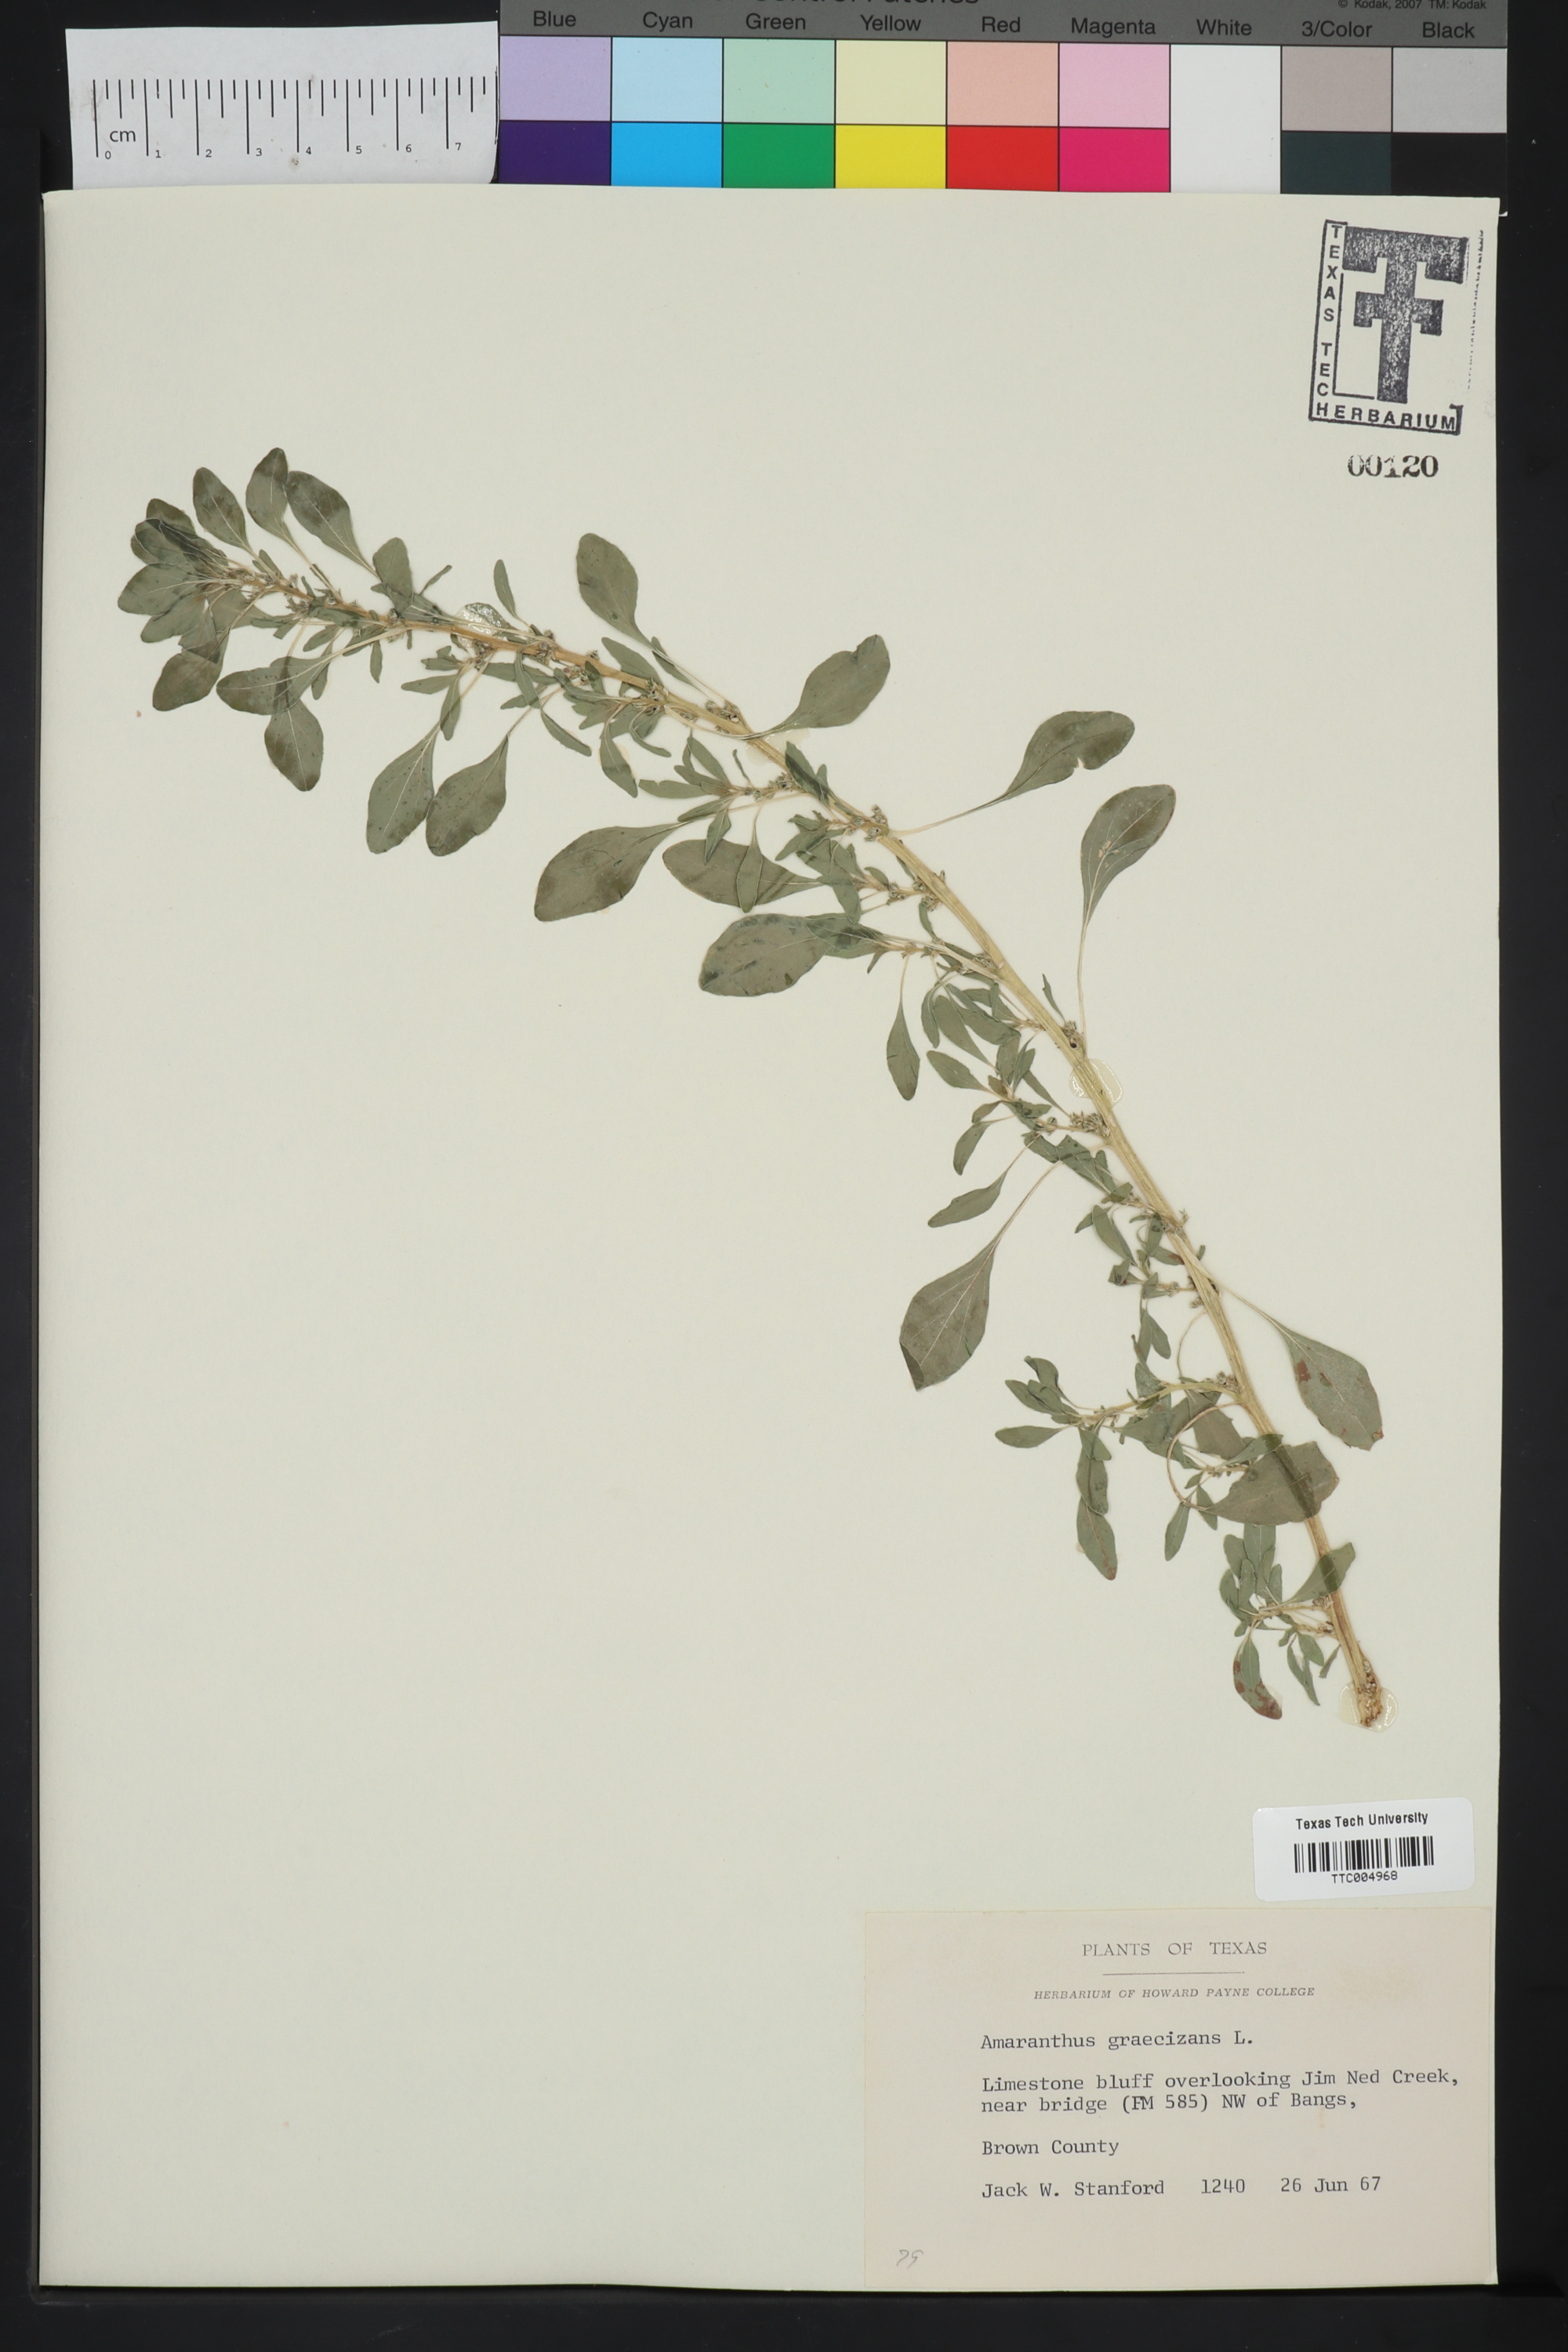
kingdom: Plantae
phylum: Tracheophyta
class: Magnoliopsida
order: Caryophyllales
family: Amaranthaceae
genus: Amaranthus
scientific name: Amaranthus graecizans
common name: Mediterranean amaranth
